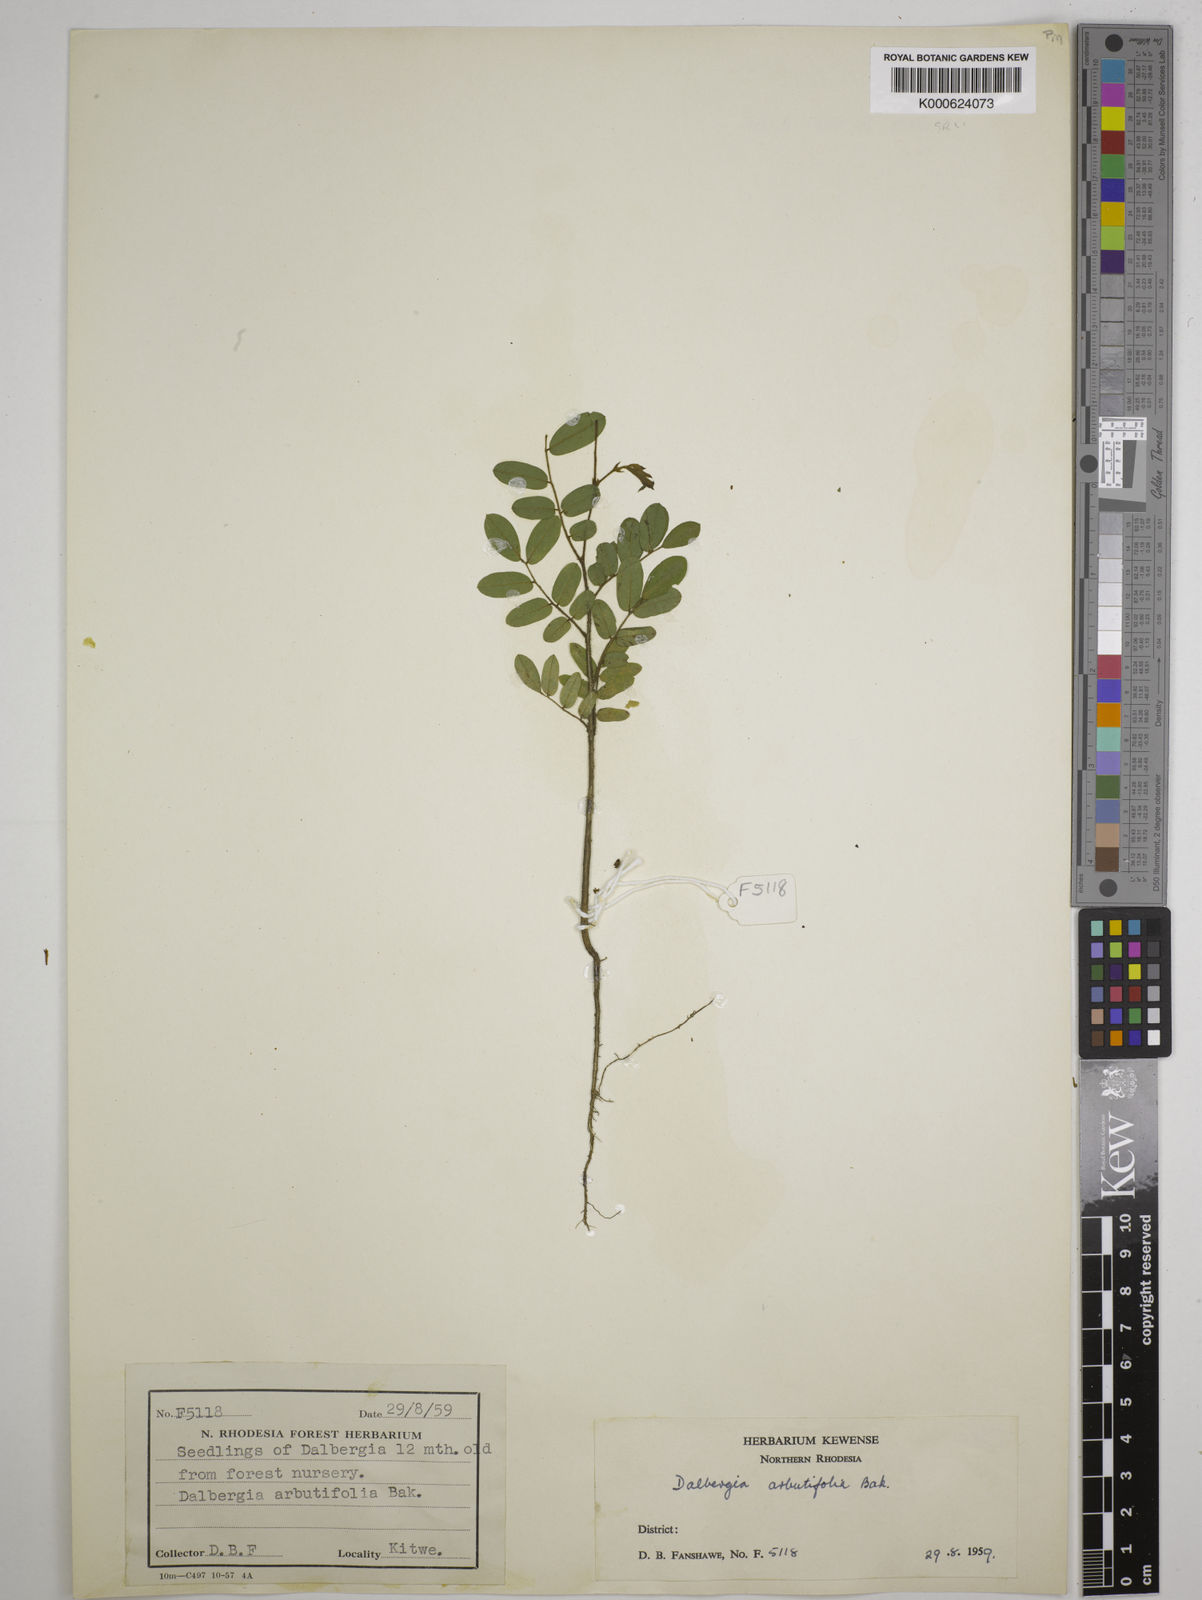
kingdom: Plantae
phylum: Tracheophyta
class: Magnoliopsida
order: Fabales
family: Fabaceae
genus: Dalbergia
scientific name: Dalbergia arbutifolia
